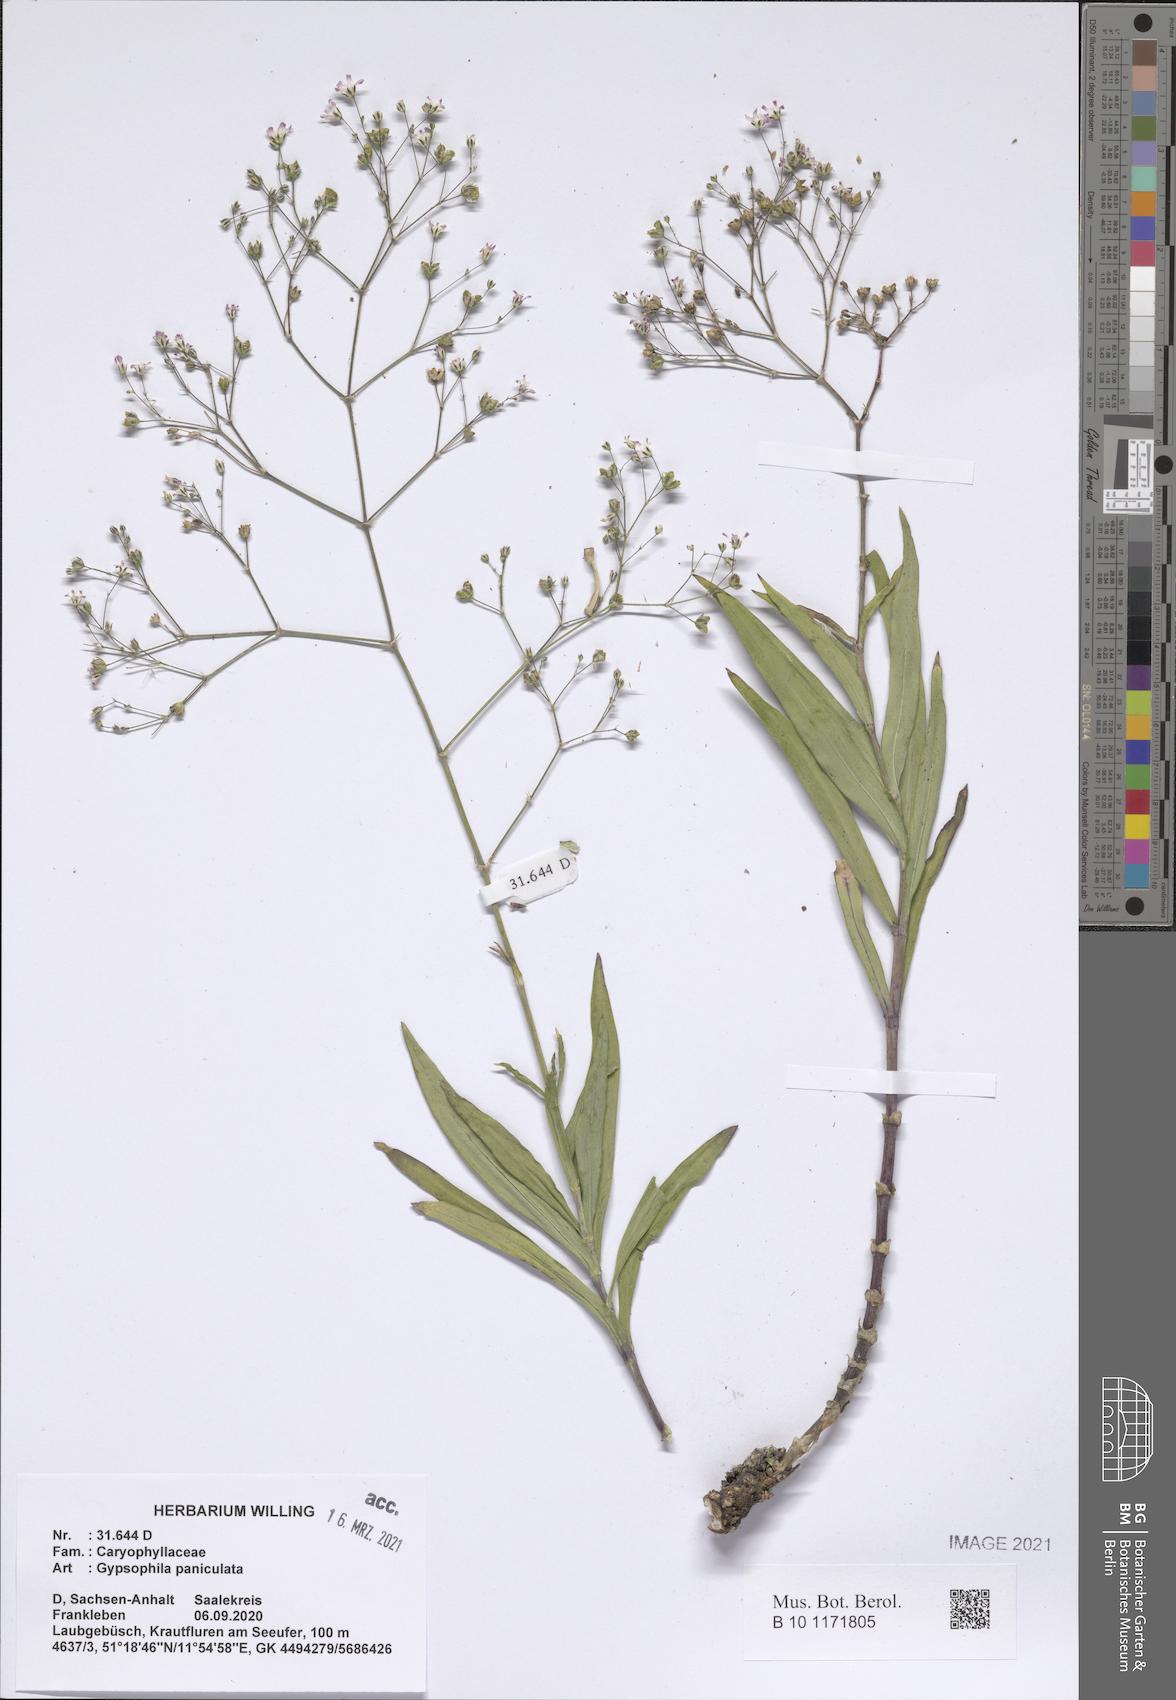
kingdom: Plantae
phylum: Tracheophyta
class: Magnoliopsida
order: Caryophyllales
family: Caryophyllaceae
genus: Gypsophila
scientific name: Gypsophila paniculata
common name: Baby's-breath
